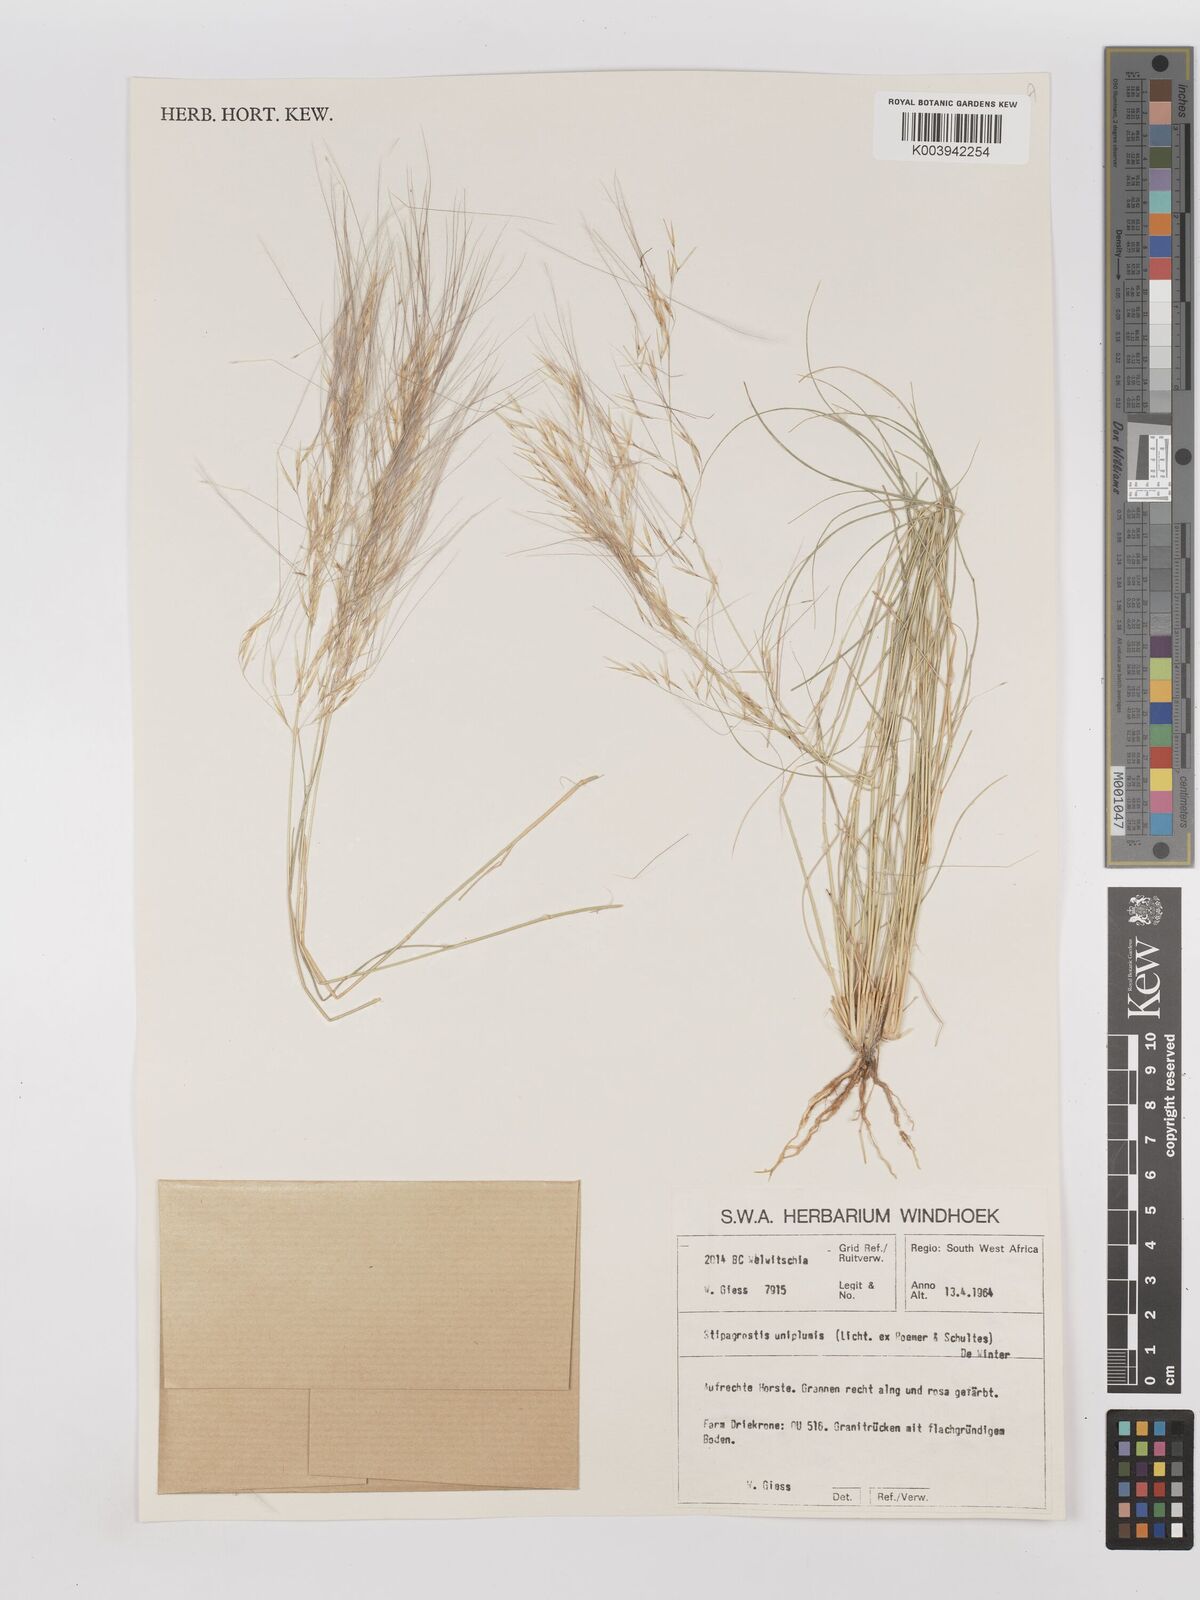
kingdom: Plantae
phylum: Tracheophyta
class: Liliopsida
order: Poales
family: Poaceae
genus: Stipagrostis
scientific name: Stipagrostis uniplumis
